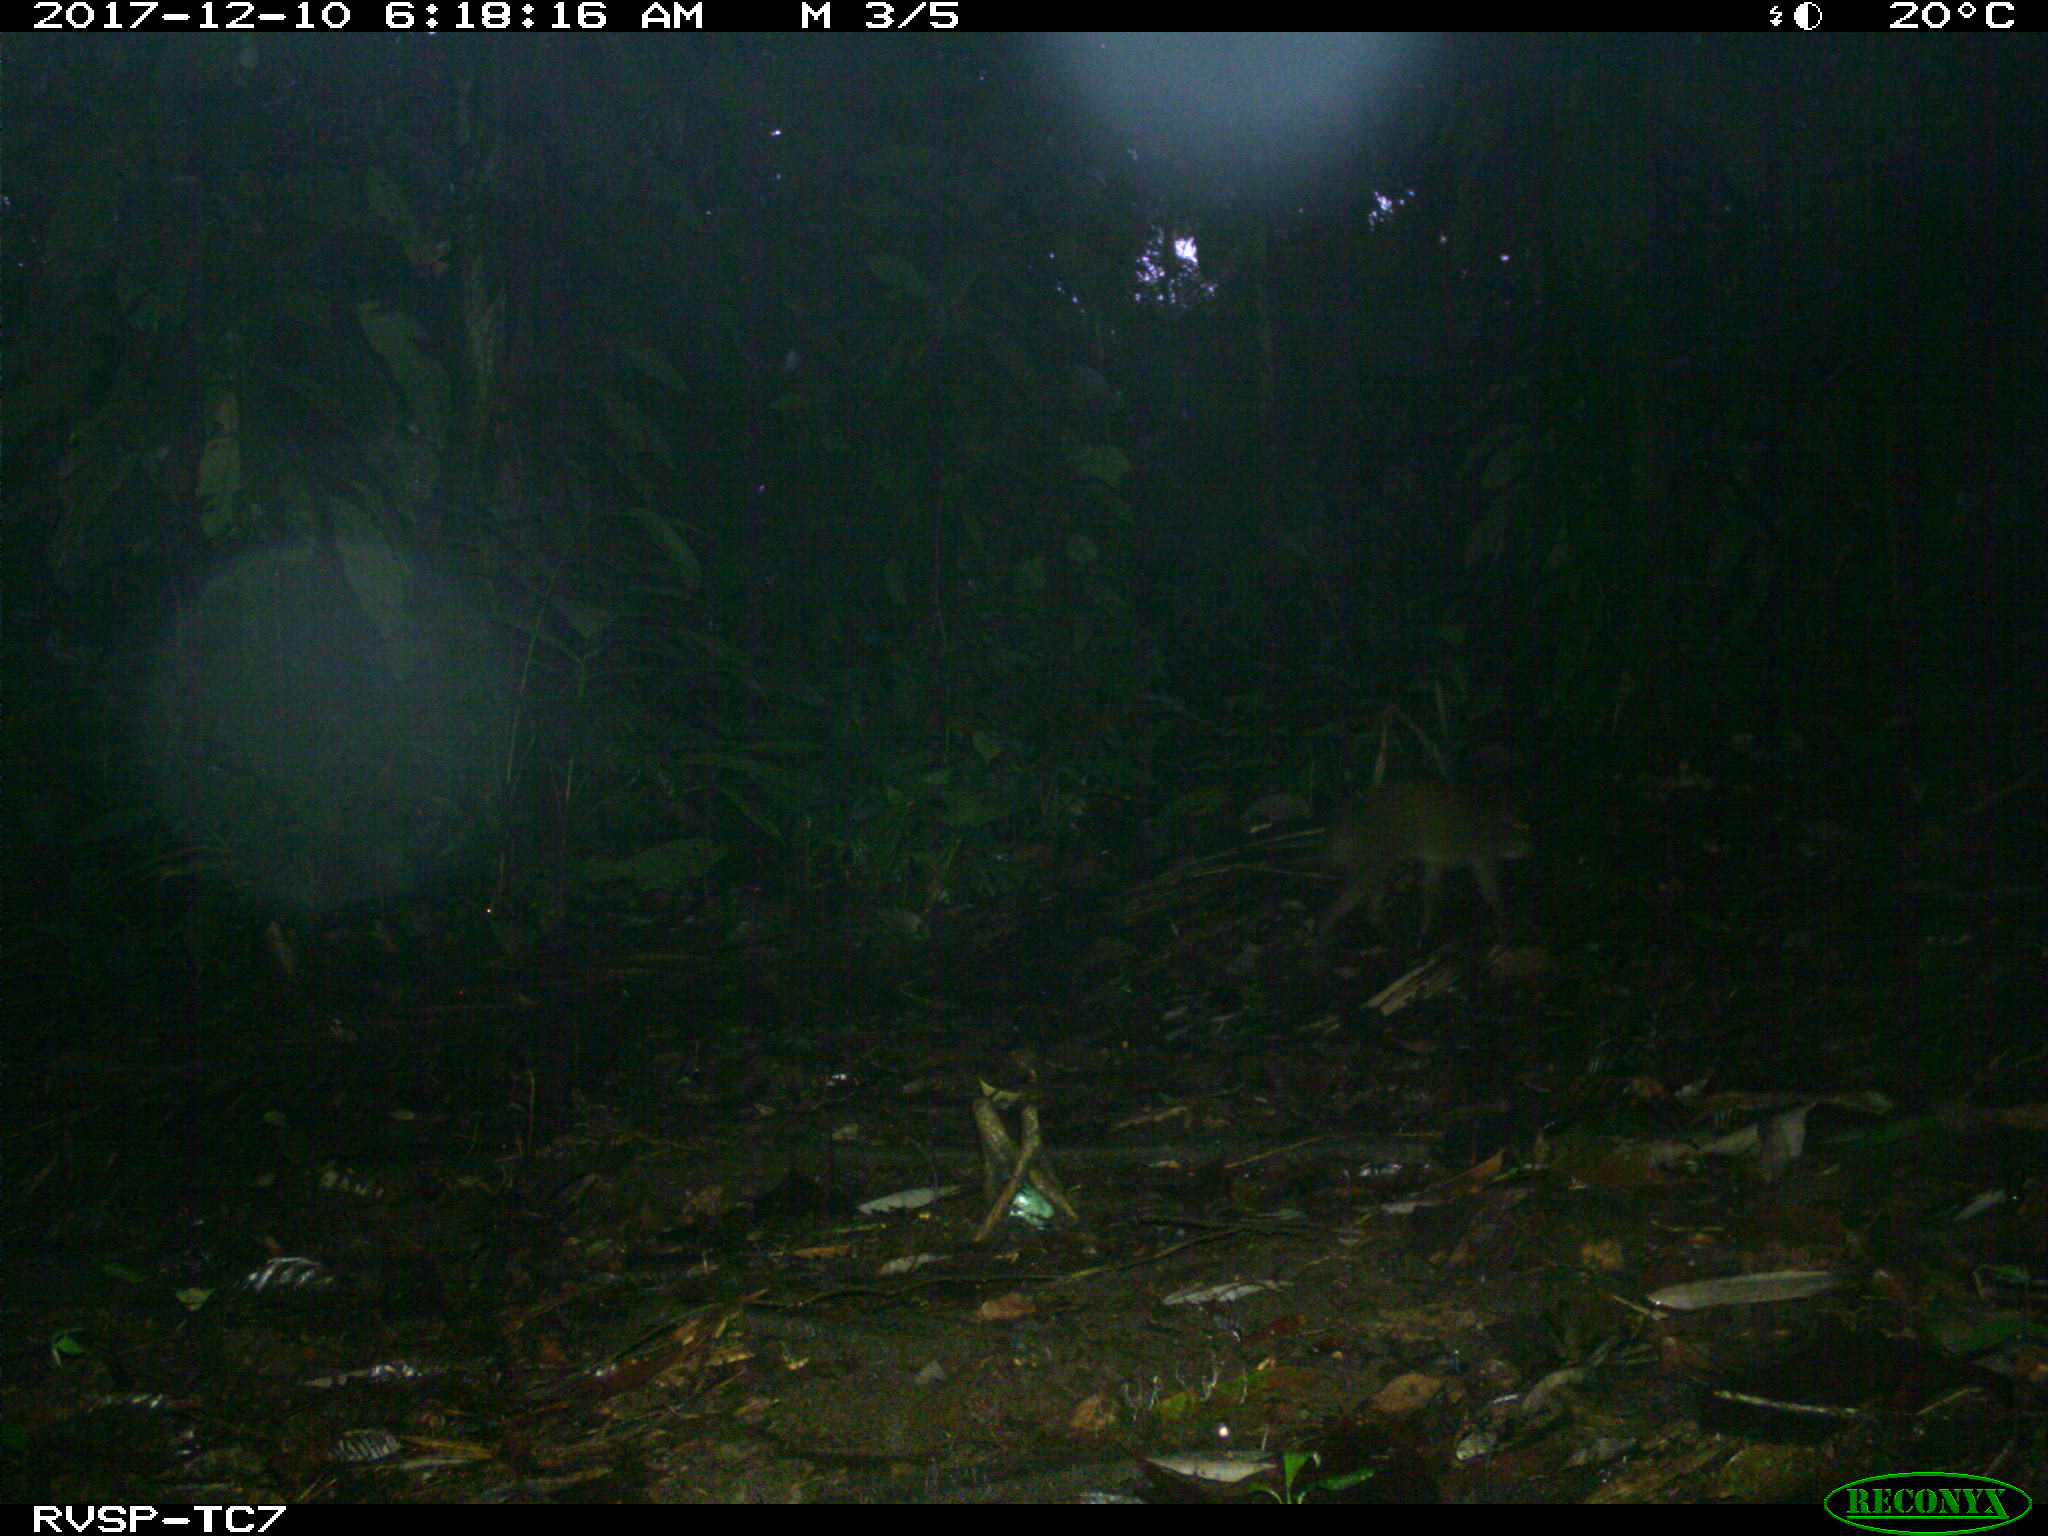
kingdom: Animalia
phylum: Chordata
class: Mammalia
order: Rodentia
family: Dasyproctidae
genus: Dasyprocta
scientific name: Dasyprocta punctata
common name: Central american agouti
